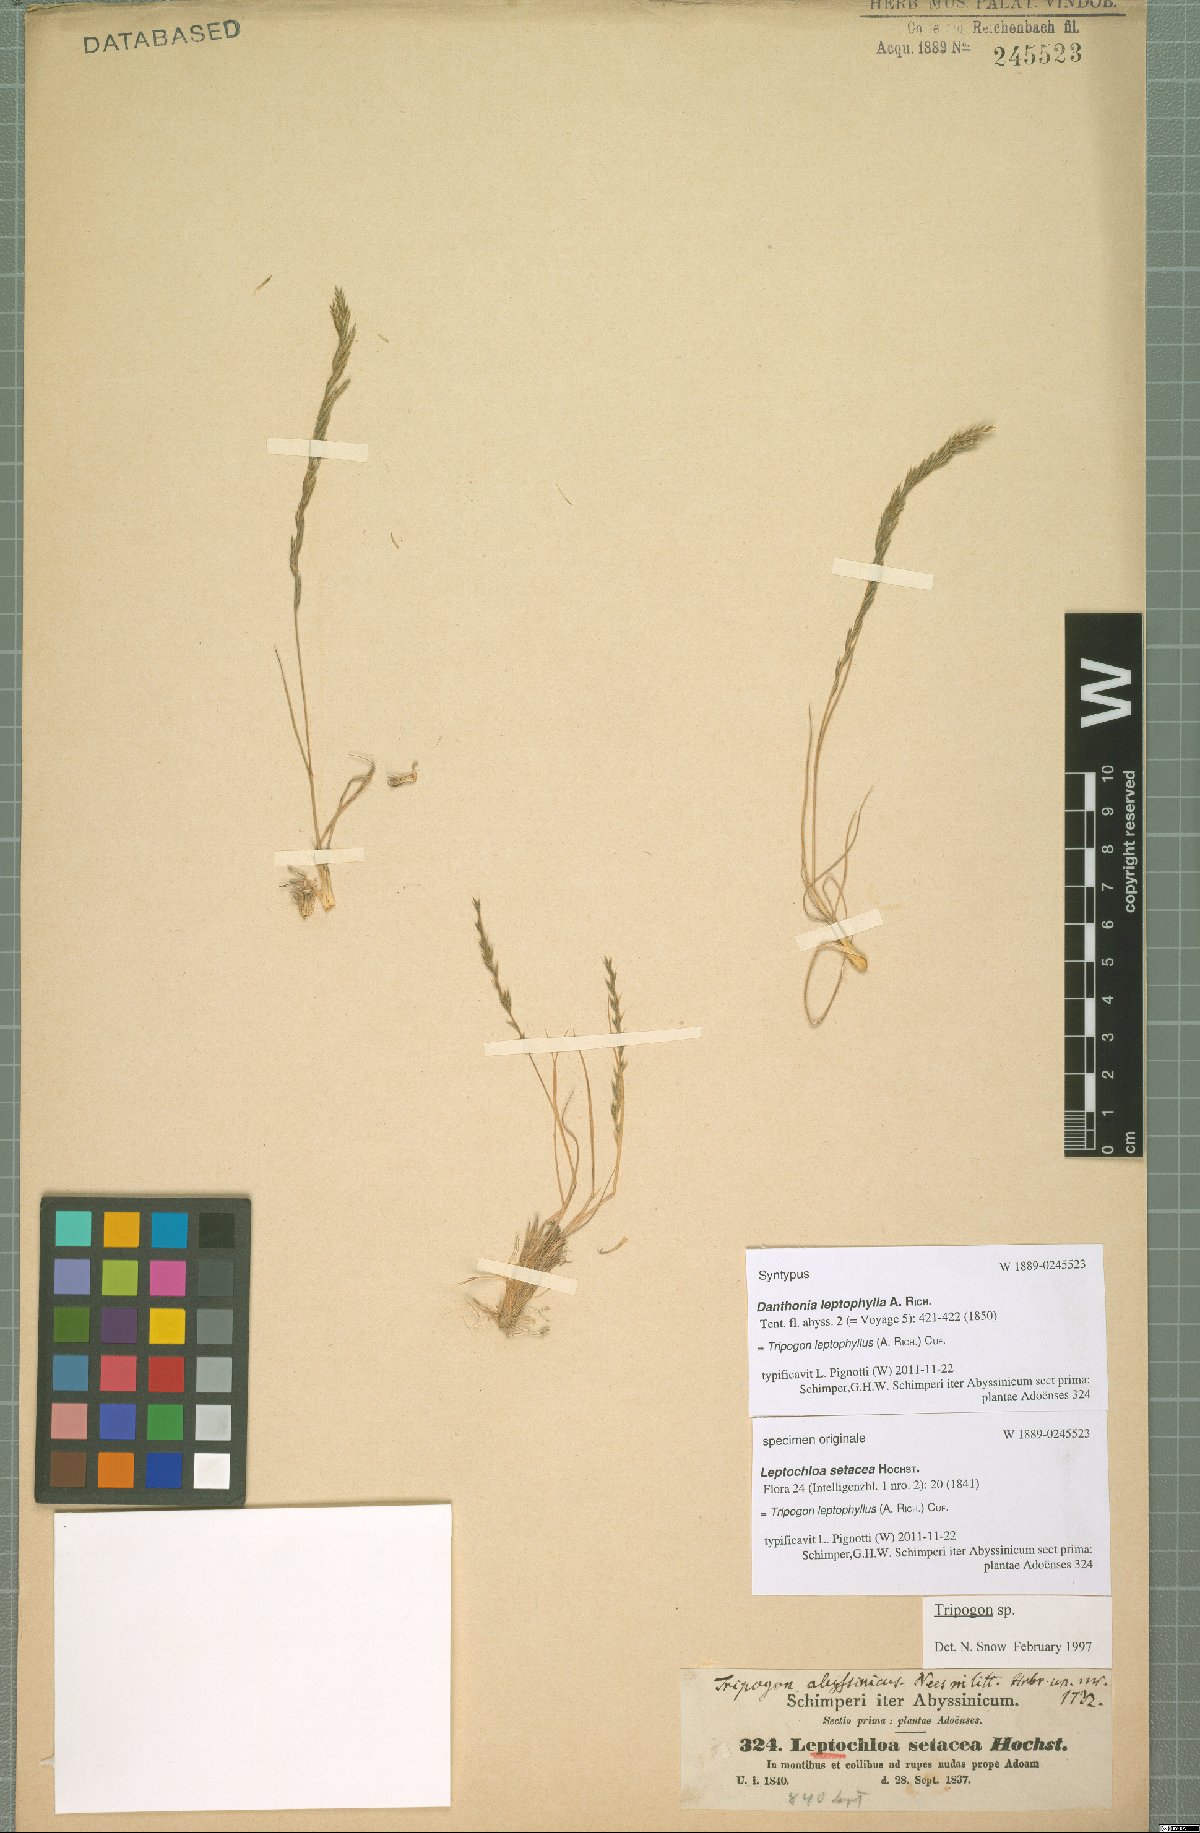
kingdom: Plantae
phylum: Tracheophyta
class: Liliopsida
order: Poales
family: Poaceae
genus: Tripogon
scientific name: Tripogon leptophyllus
